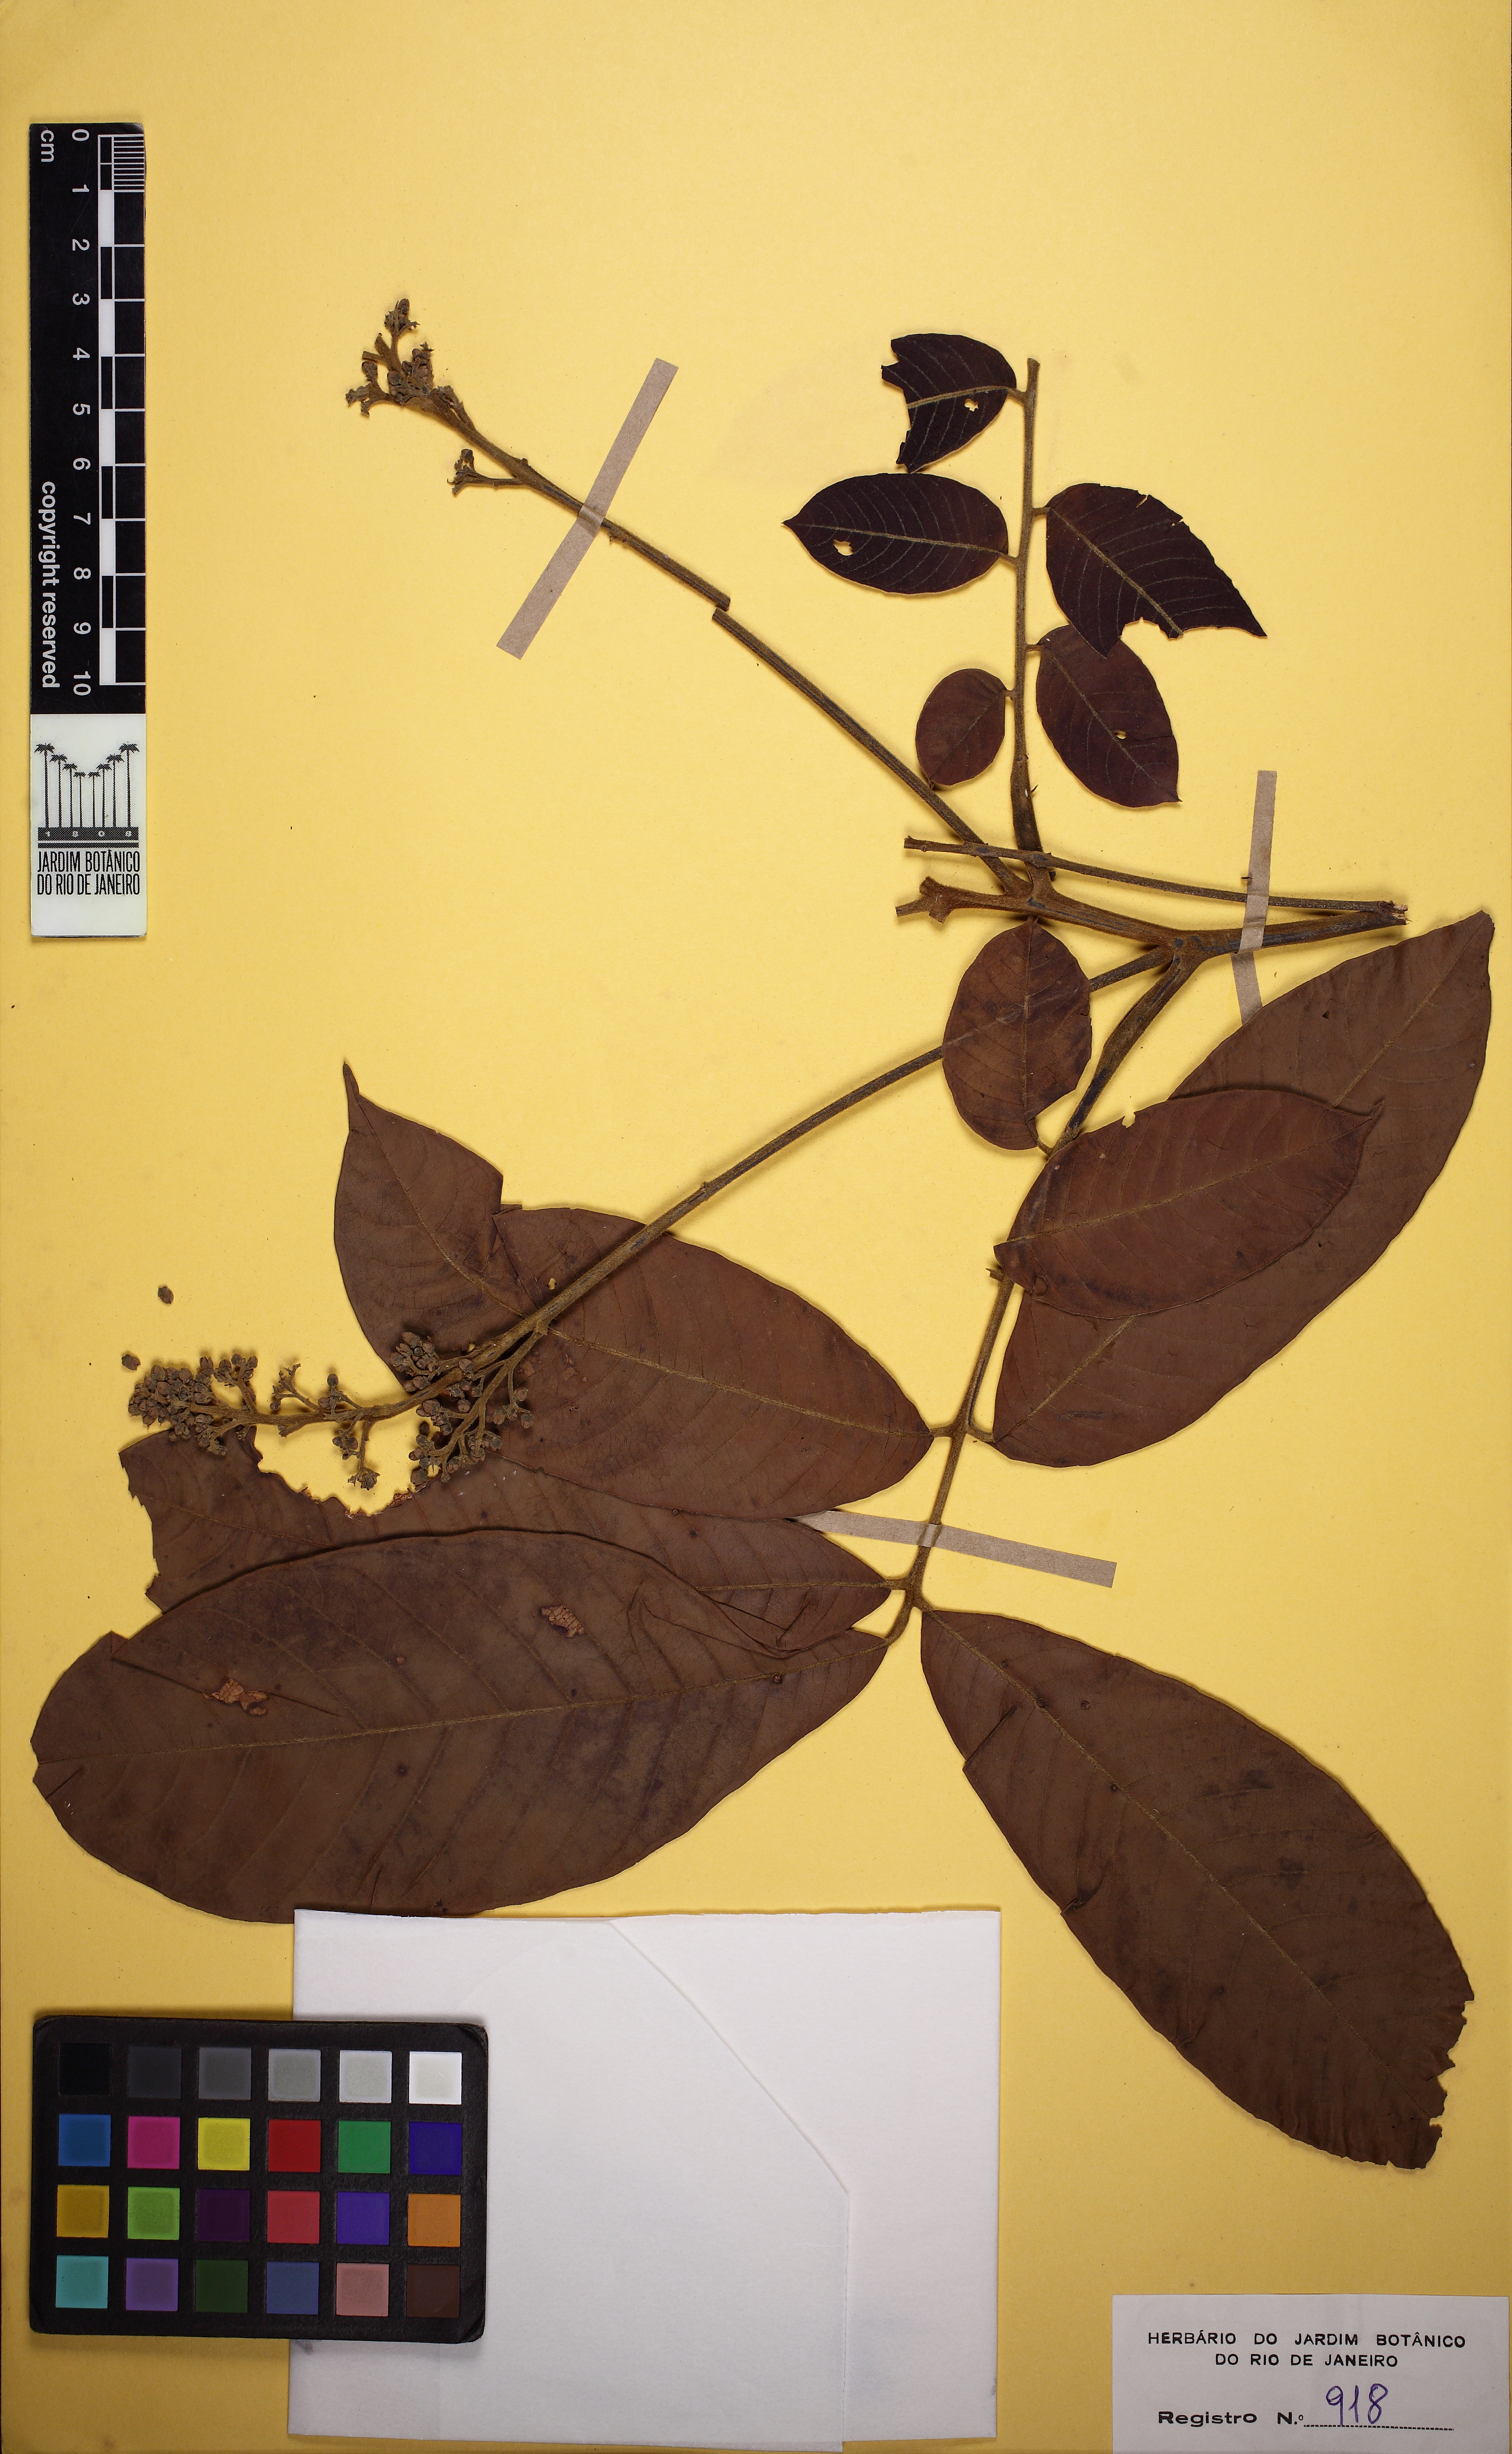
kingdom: Plantae
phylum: Tracheophyta
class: Magnoliopsida
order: Sapindales
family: Meliaceae
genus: Trichilia
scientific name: Trichilia
